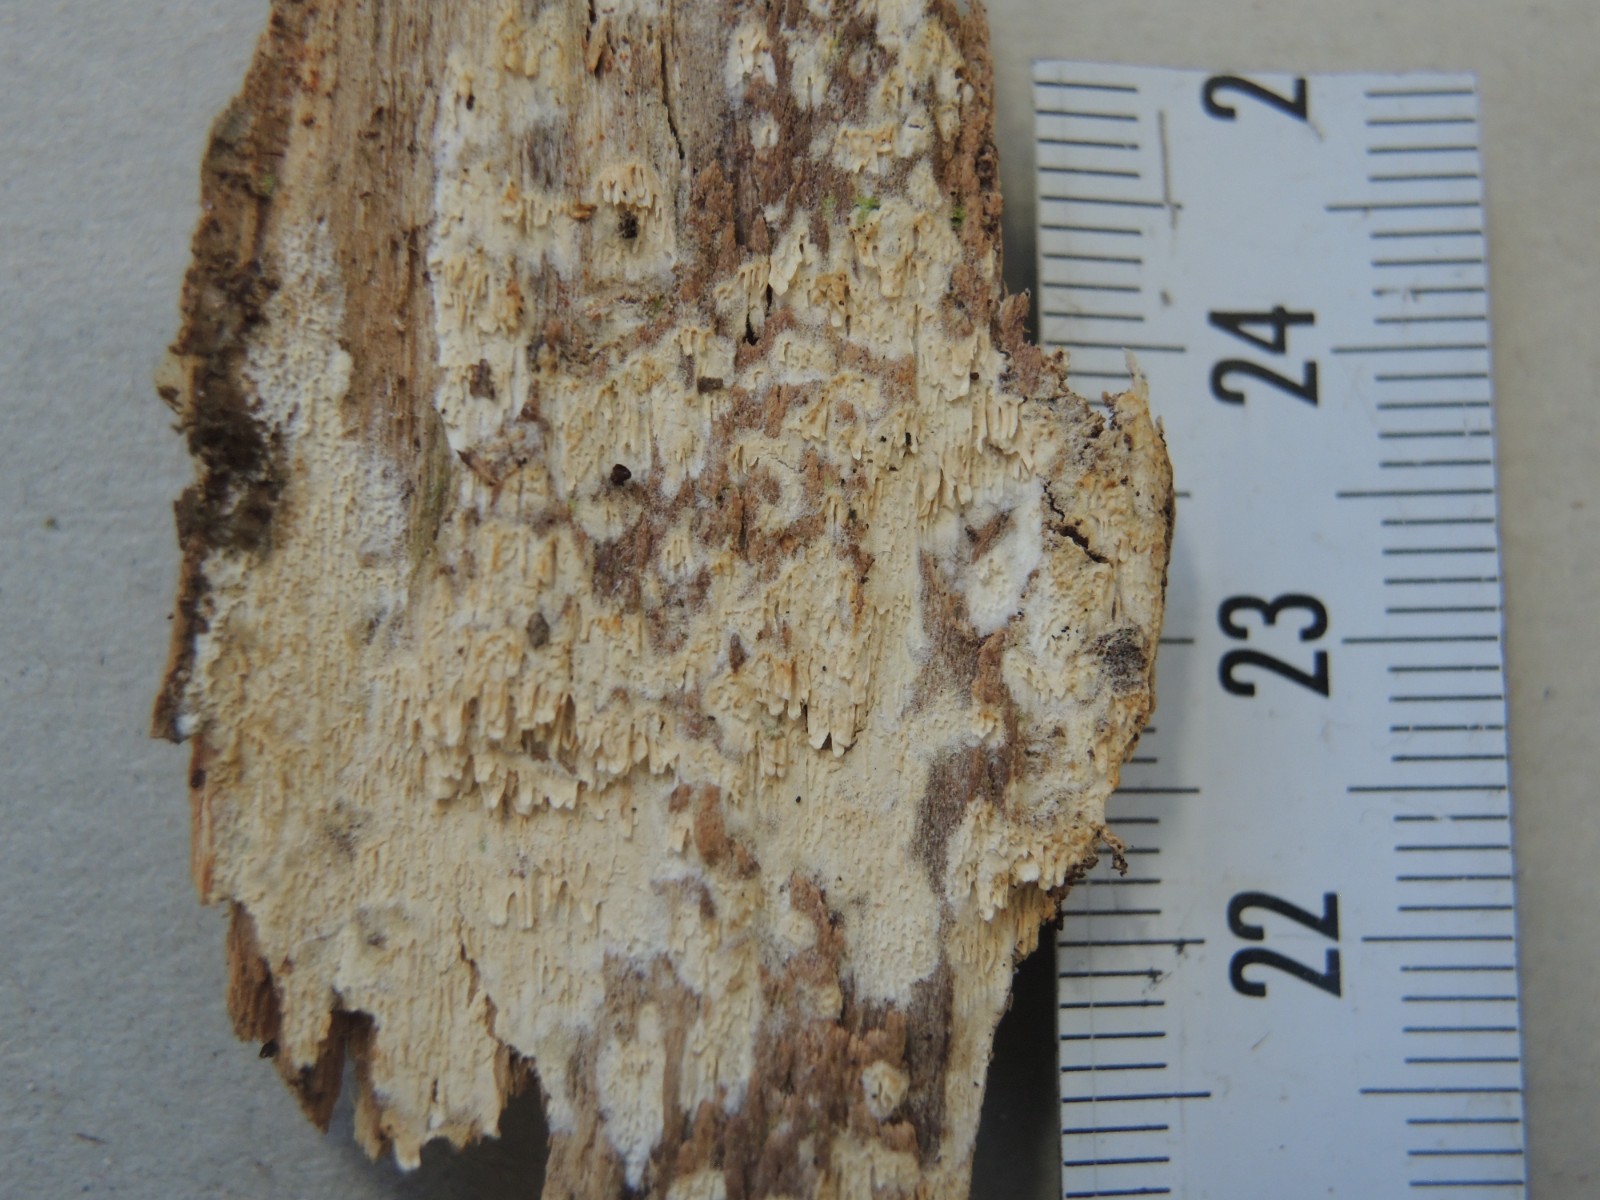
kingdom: Fungi
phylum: Basidiomycota
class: Agaricomycetes
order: Hymenochaetales
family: Schizoporaceae
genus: Schizopora
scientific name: Schizopora paradoxa
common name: hvid tandsvamp
